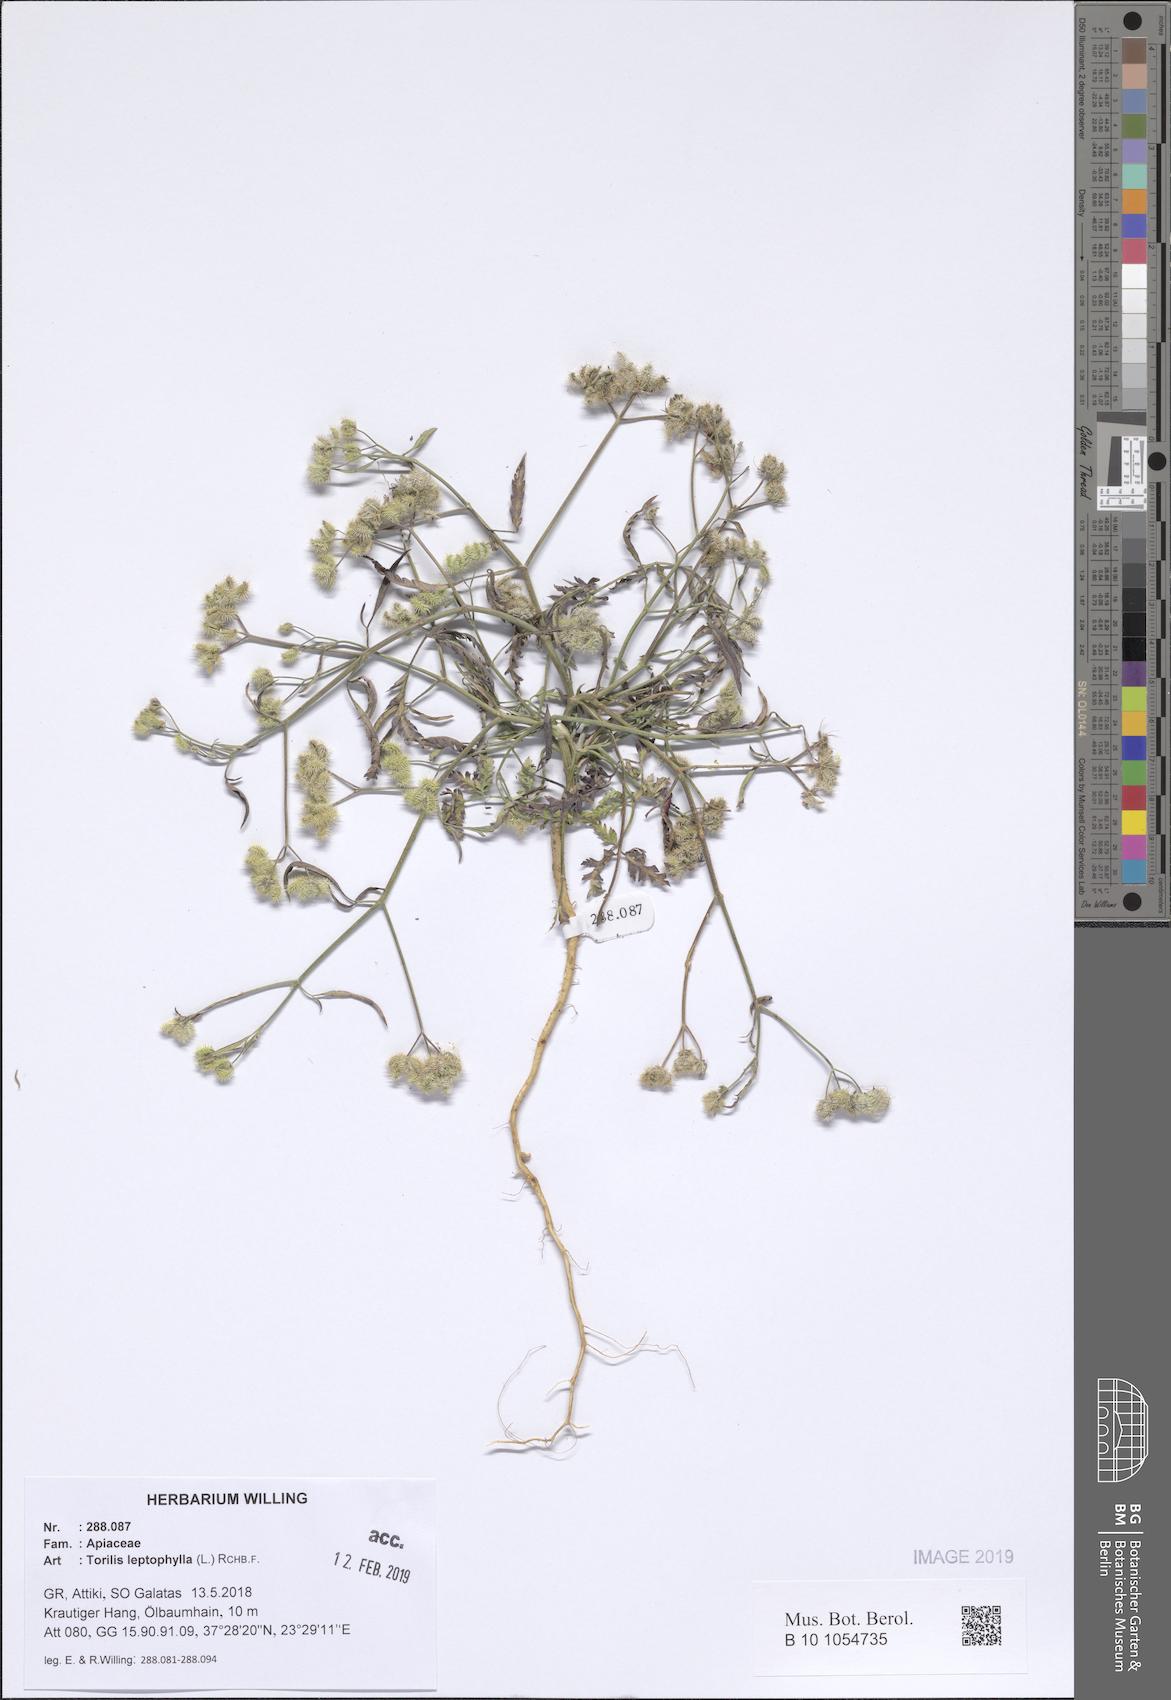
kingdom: Plantae
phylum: Tracheophyta
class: Magnoliopsida
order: Apiales
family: Apiaceae
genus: Torilis
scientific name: Torilis leptophylla
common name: Bristlefruit hedgeparsley
